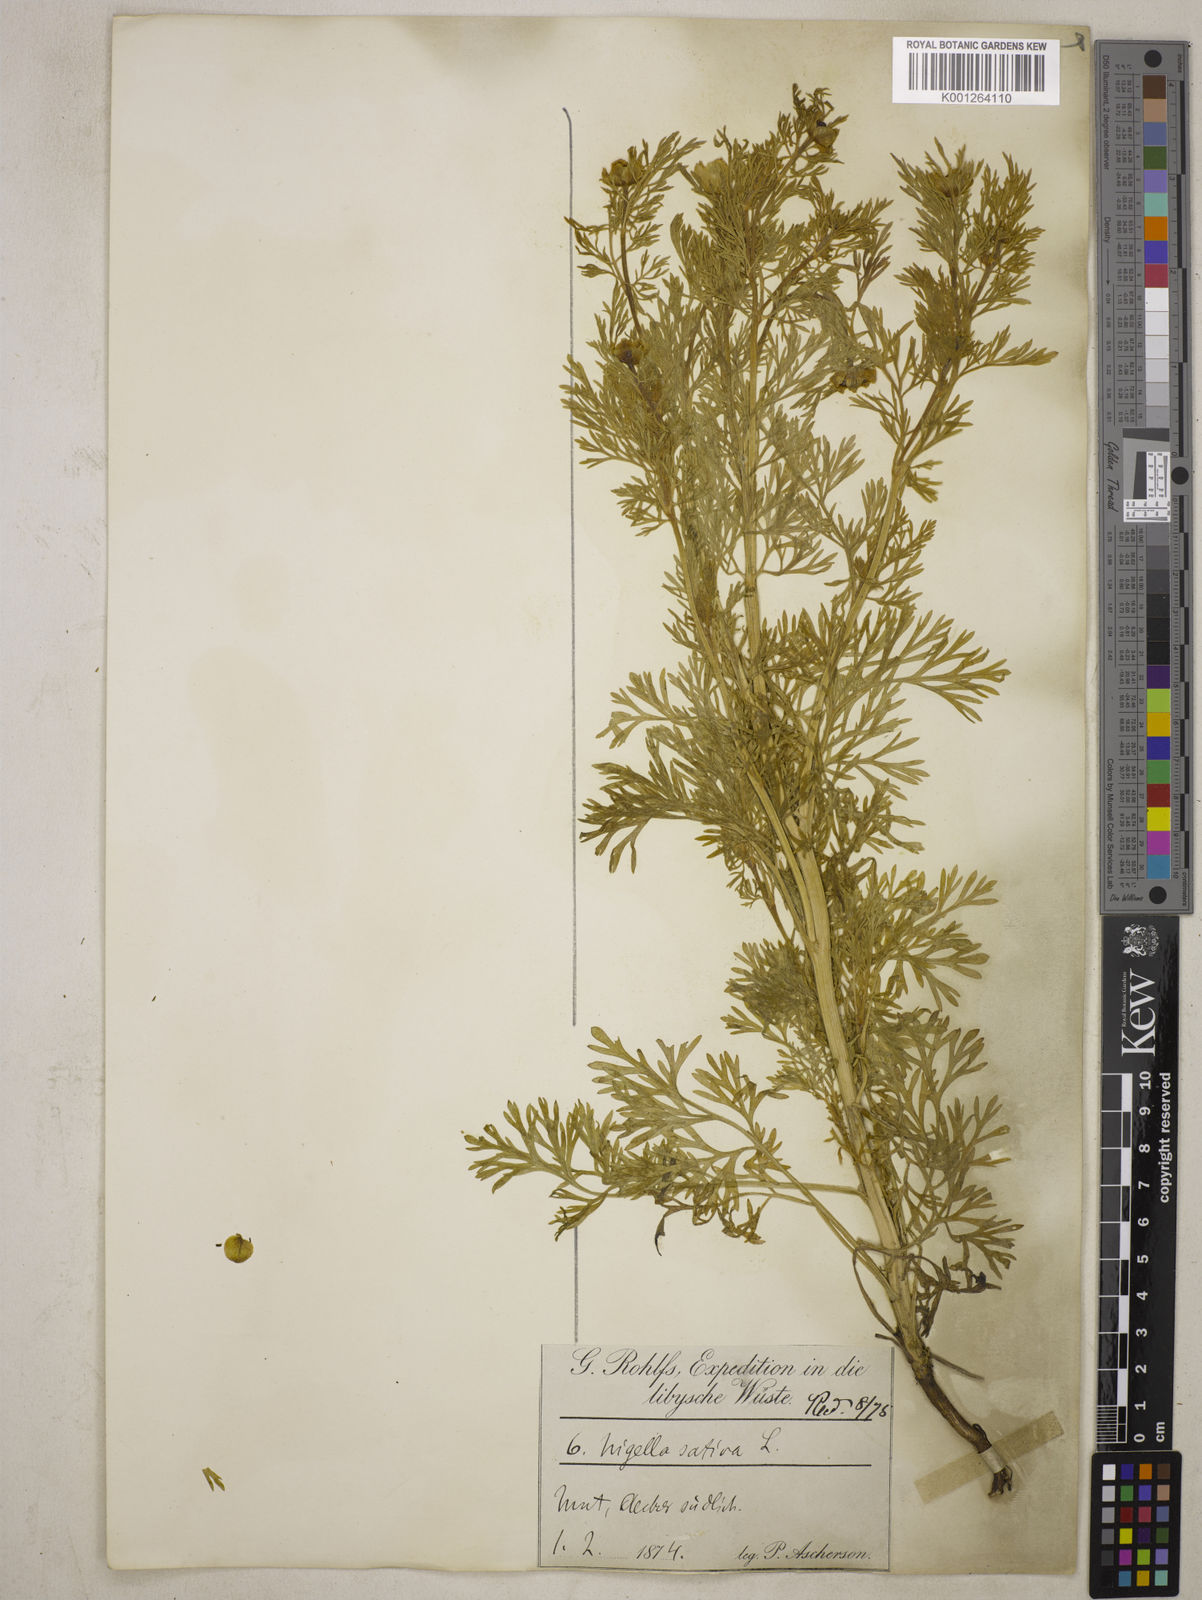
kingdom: Plantae
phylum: Tracheophyta
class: Magnoliopsida
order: Ranunculales
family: Ranunculaceae
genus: Nigella
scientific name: Nigella sativa
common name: Black-cumin
